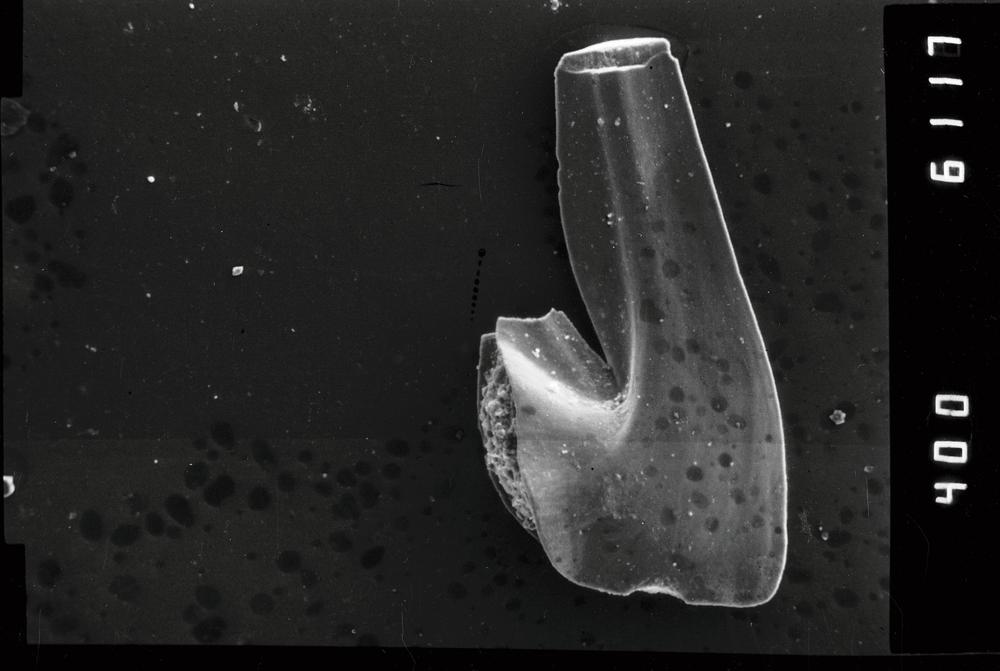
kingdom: Animalia
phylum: Chordata
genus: Paroistodus
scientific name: Paroistodus Drepanodus proteus
